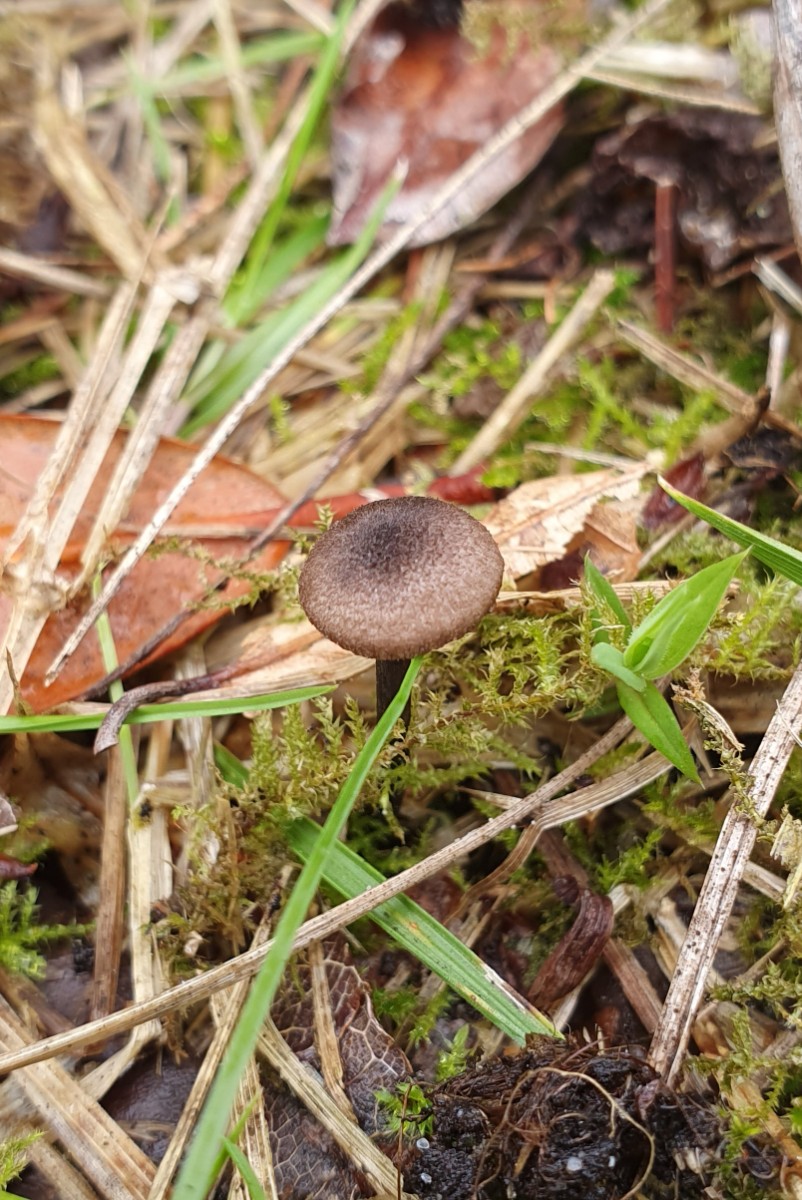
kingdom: Fungi
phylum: Basidiomycota
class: Agaricomycetes
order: Agaricales
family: Entolomataceae
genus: Entoloma
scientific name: Entoloma lampropus
